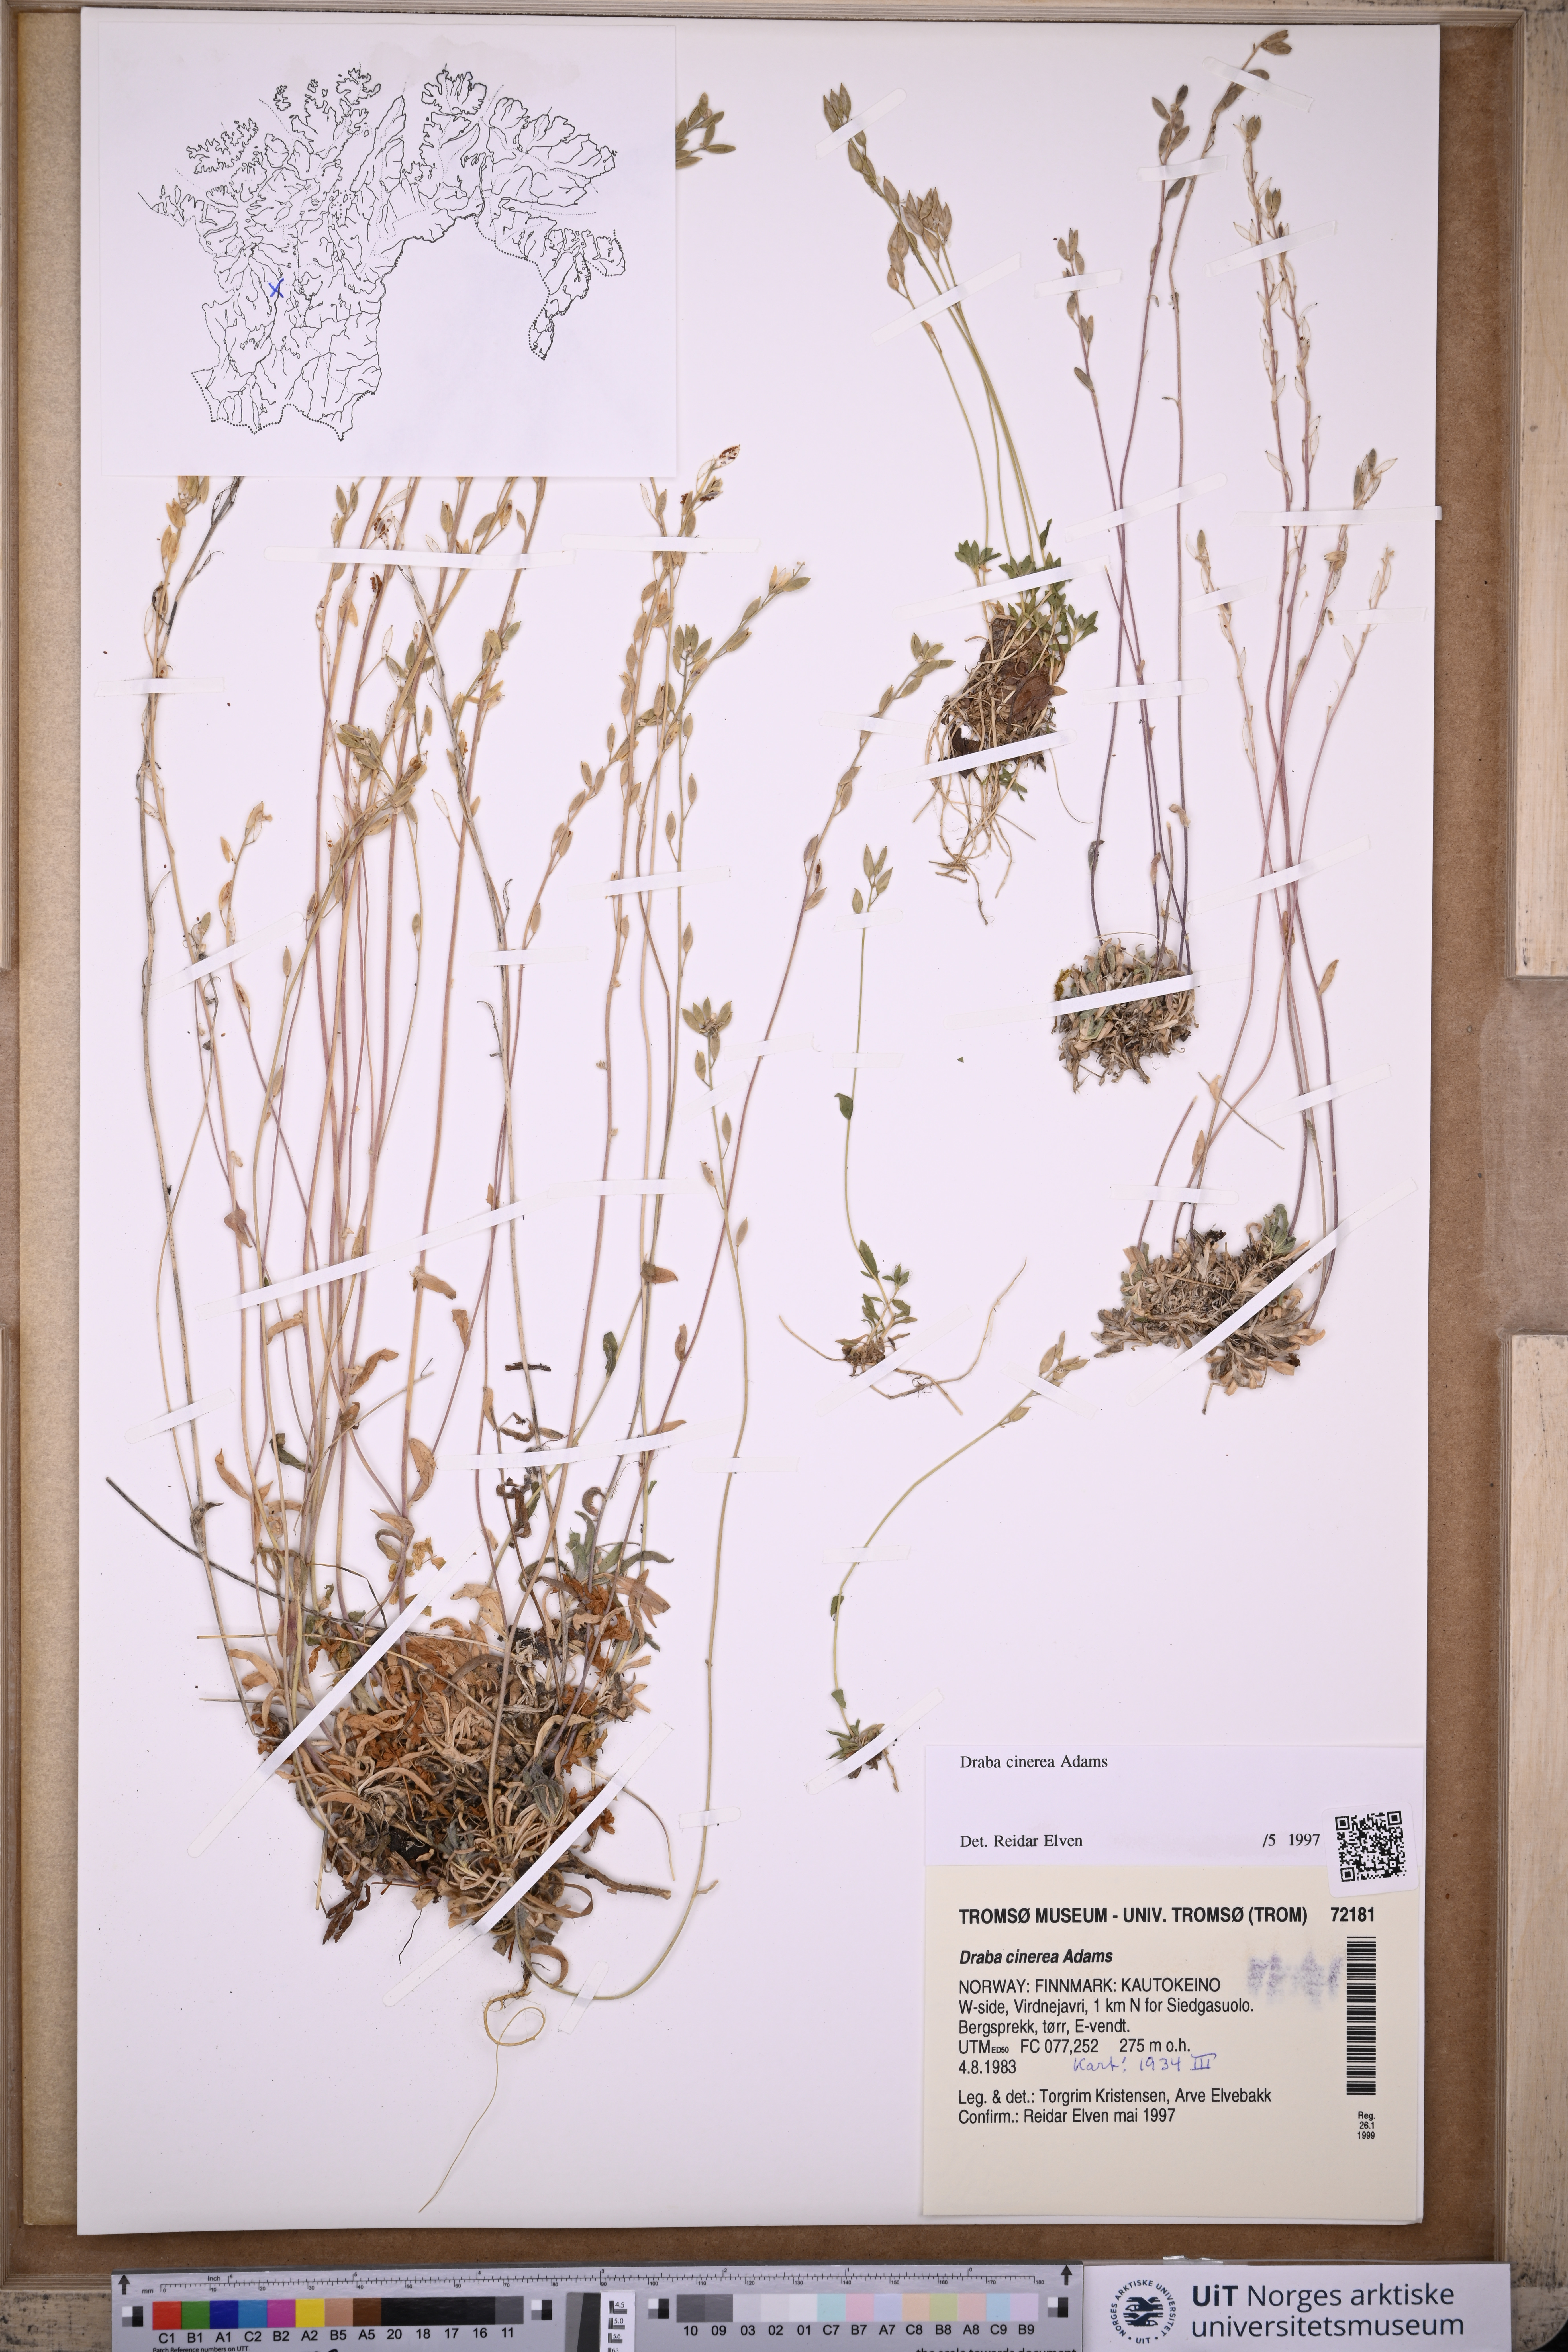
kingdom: Plantae
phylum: Tracheophyta
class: Magnoliopsida
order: Brassicales
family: Brassicaceae
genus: Draba
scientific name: Draba arctica
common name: Arctic draba
